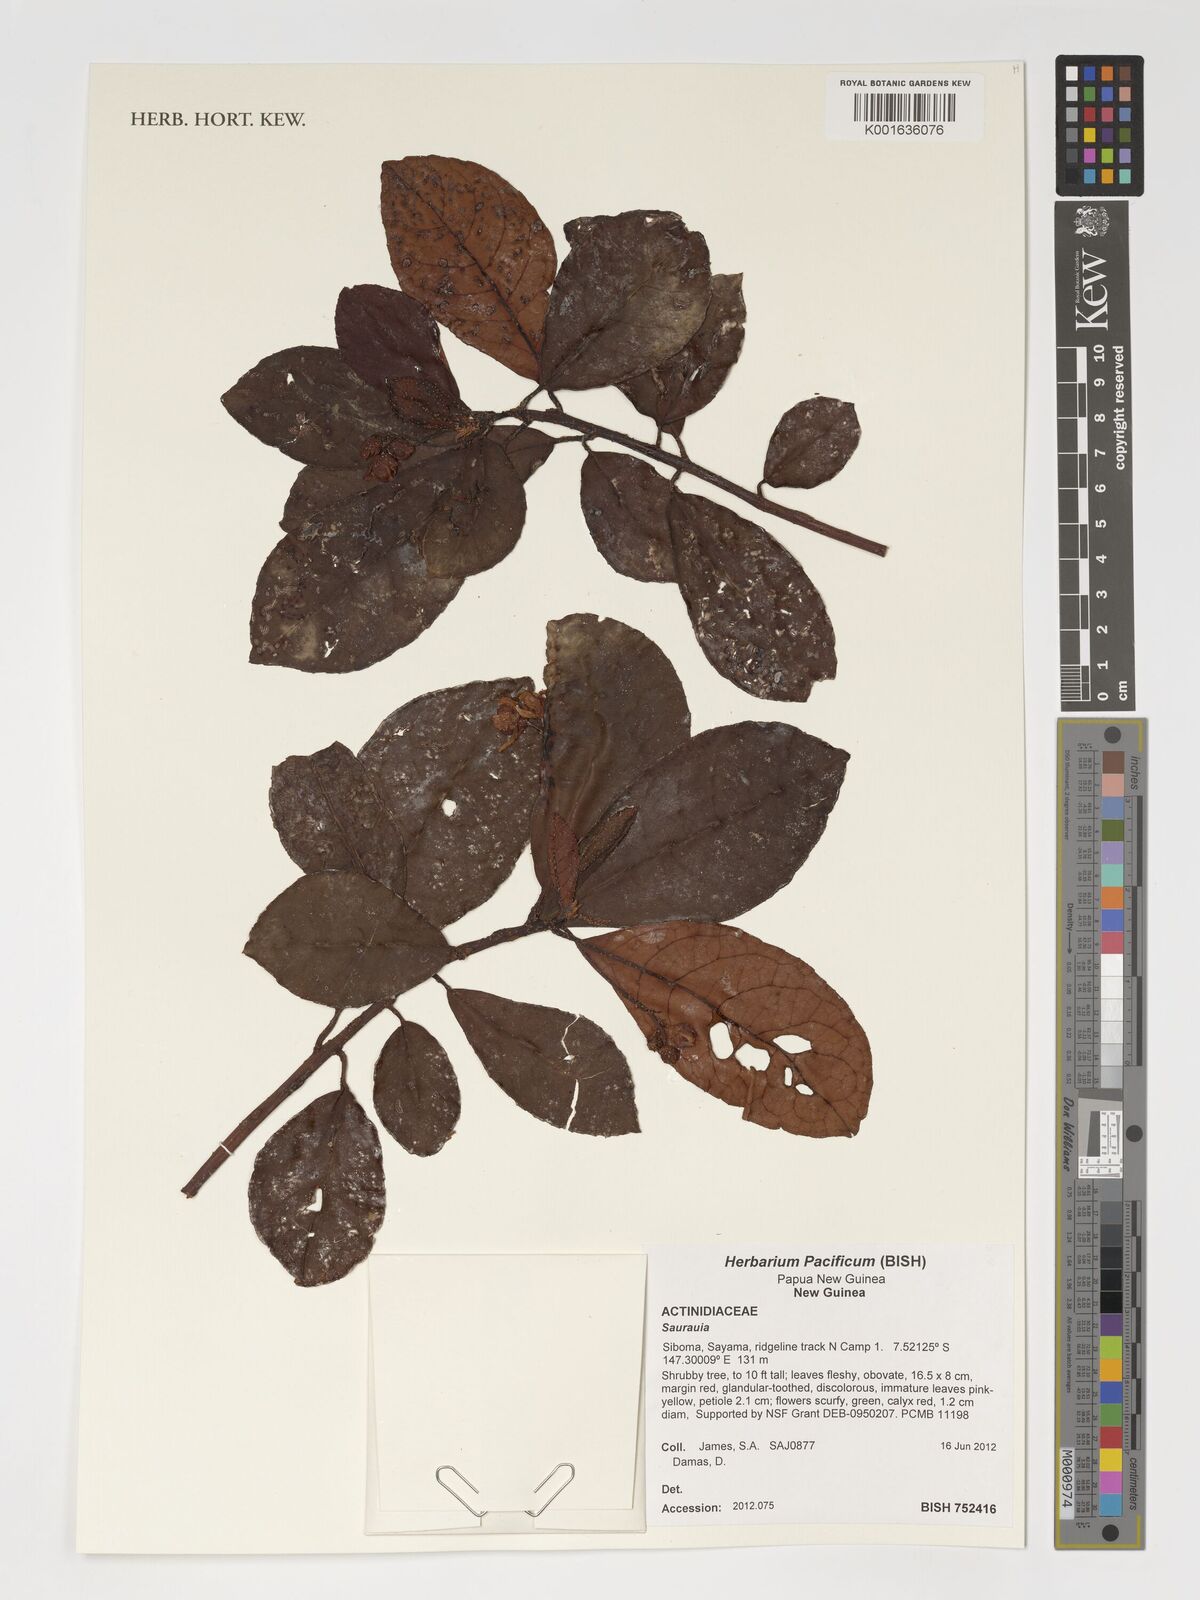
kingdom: Plantae
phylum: Tracheophyta
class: Magnoliopsida
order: Ericales
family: Actinidiaceae
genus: Saurauia
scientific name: Saurauia
